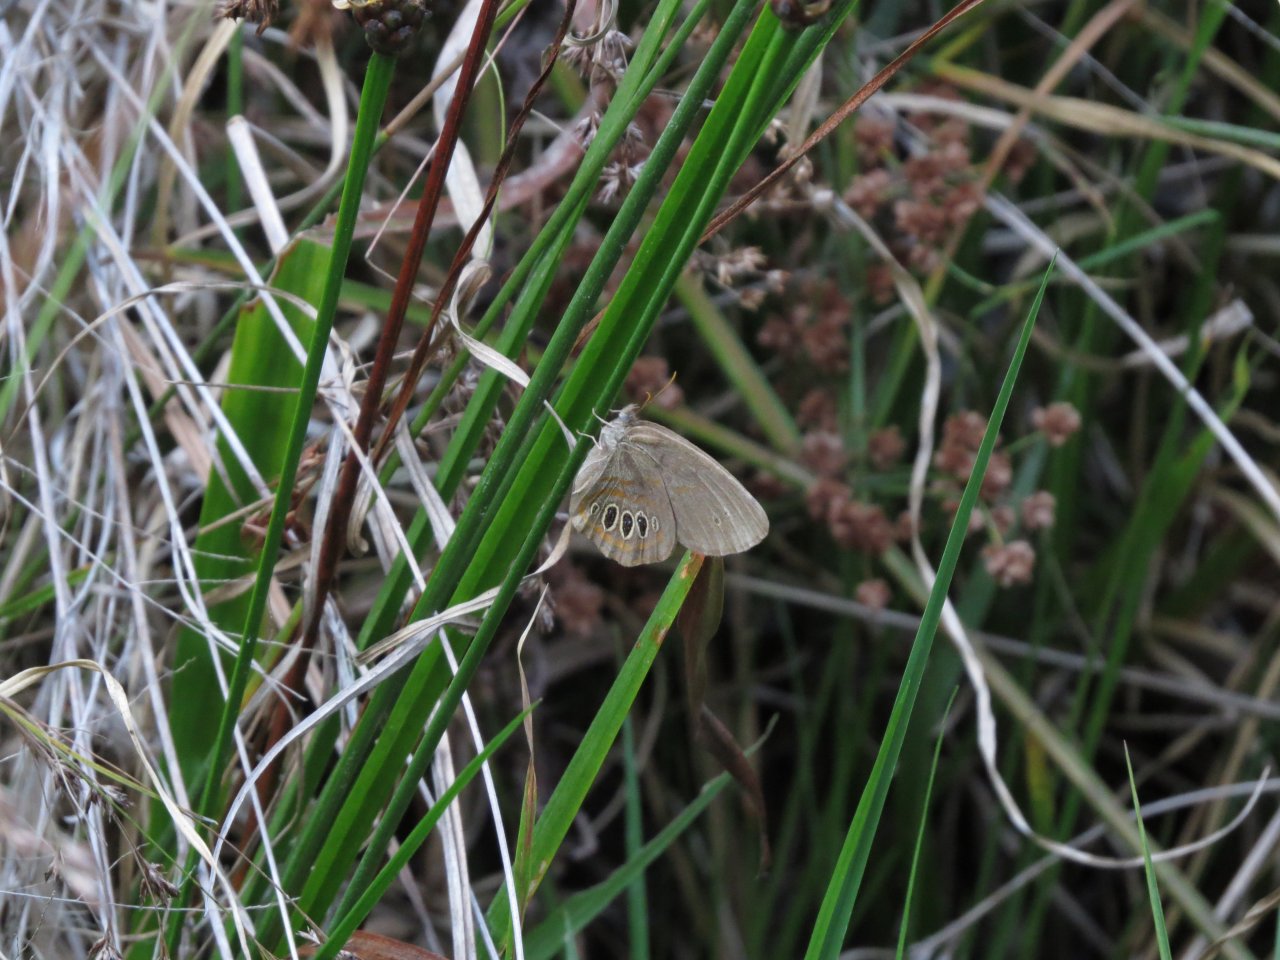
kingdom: Animalia
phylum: Arthropoda
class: Insecta
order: Lepidoptera
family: Nymphalidae
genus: Euptychia
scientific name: Euptychia phocion
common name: Georgia Satyr
